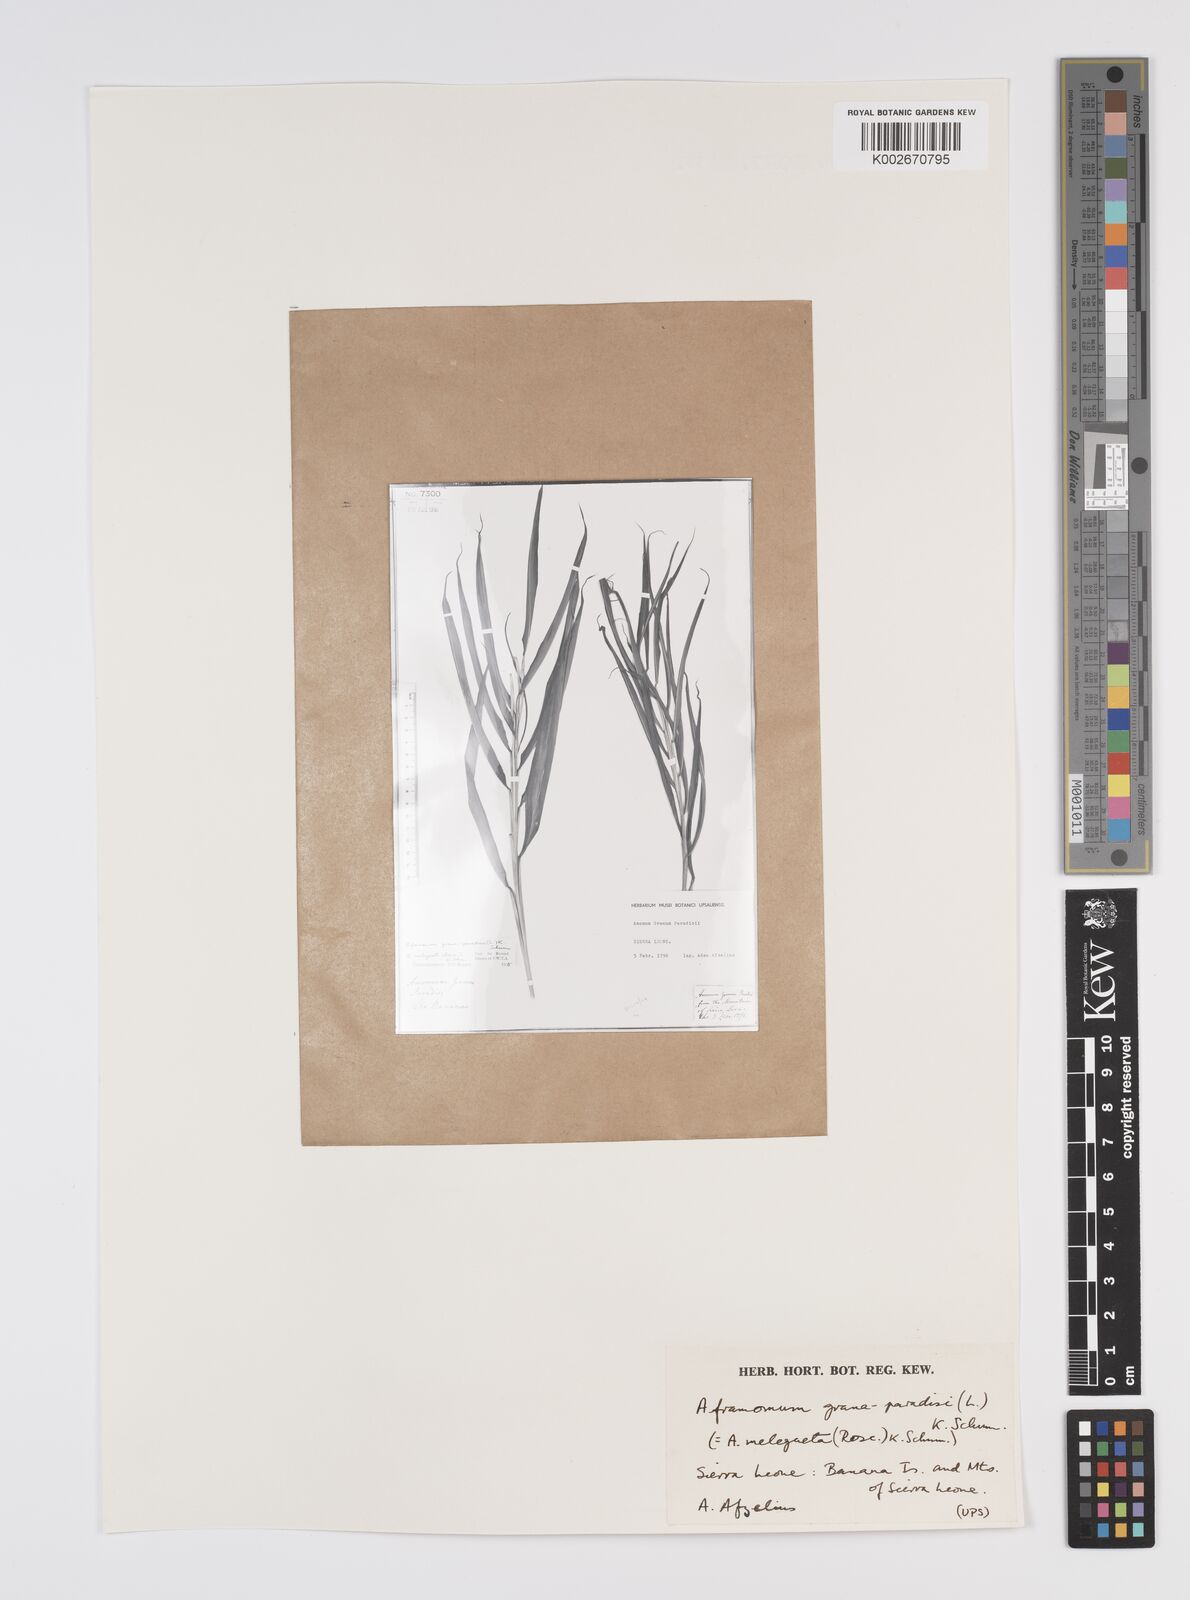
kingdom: Plantae
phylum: Tracheophyta
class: Liliopsida
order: Zingiberales
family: Zingiberaceae
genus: Aframomum
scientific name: Aframomum melegueta
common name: Grains of paradise
